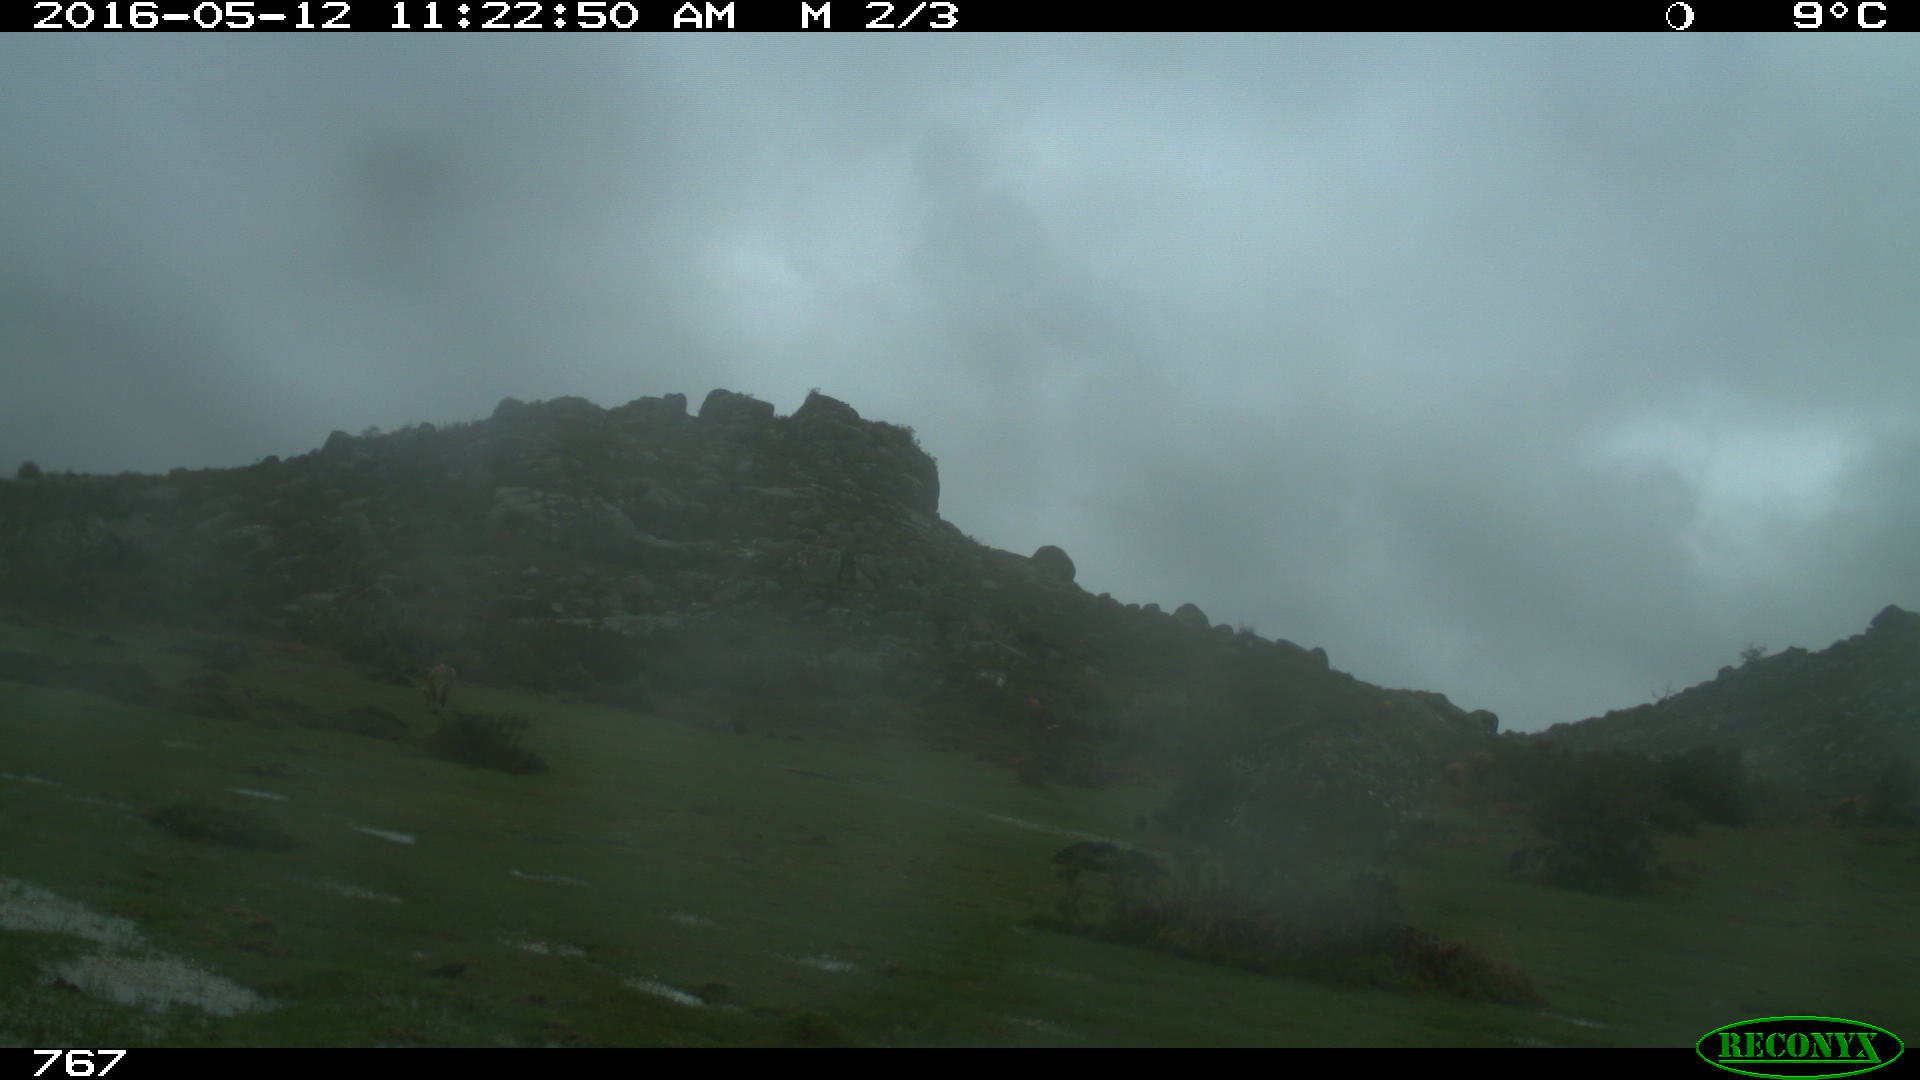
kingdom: Animalia
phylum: Chordata
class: Mammalia
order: Artiodactyla
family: Bovidae
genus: Bos
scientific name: Bos taurus
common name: Domesticated cattle
